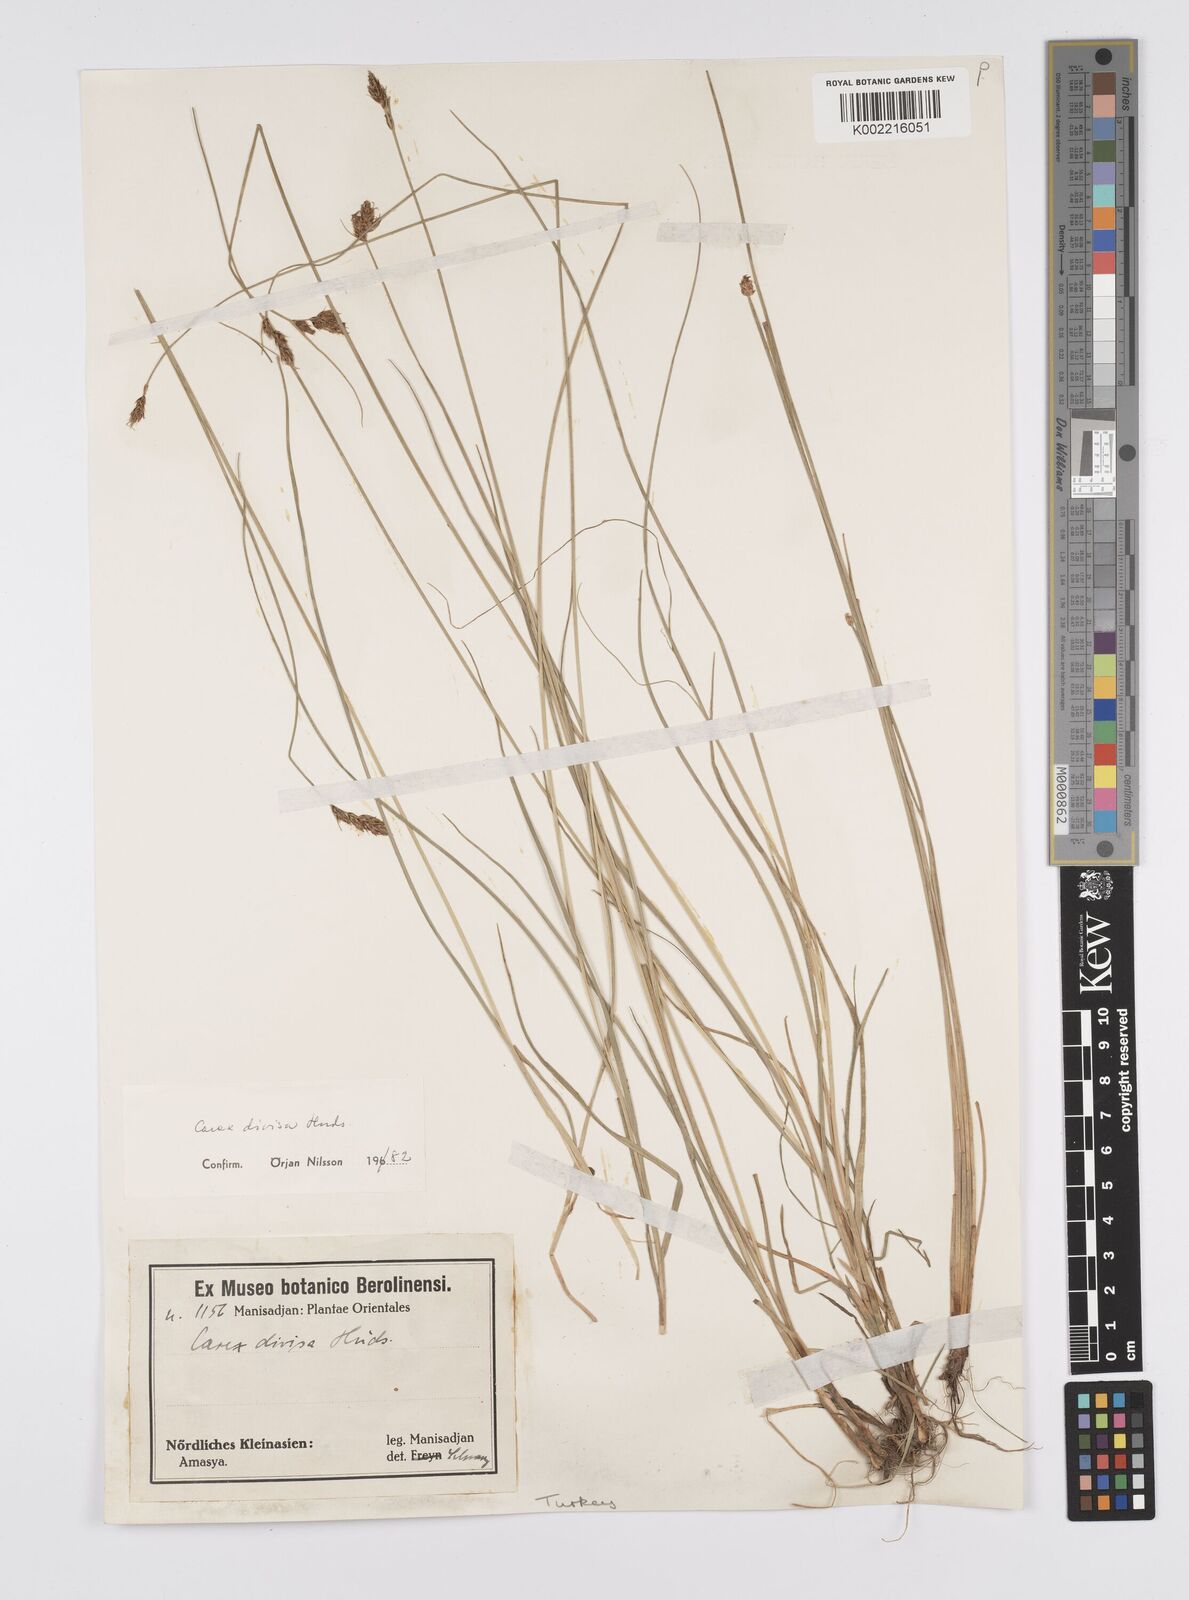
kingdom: Plantae
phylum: Tracheophyta
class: Liliopsida
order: Poales
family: Cyperaceae
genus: Carex
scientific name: Carex divisa
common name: Divided sedge
